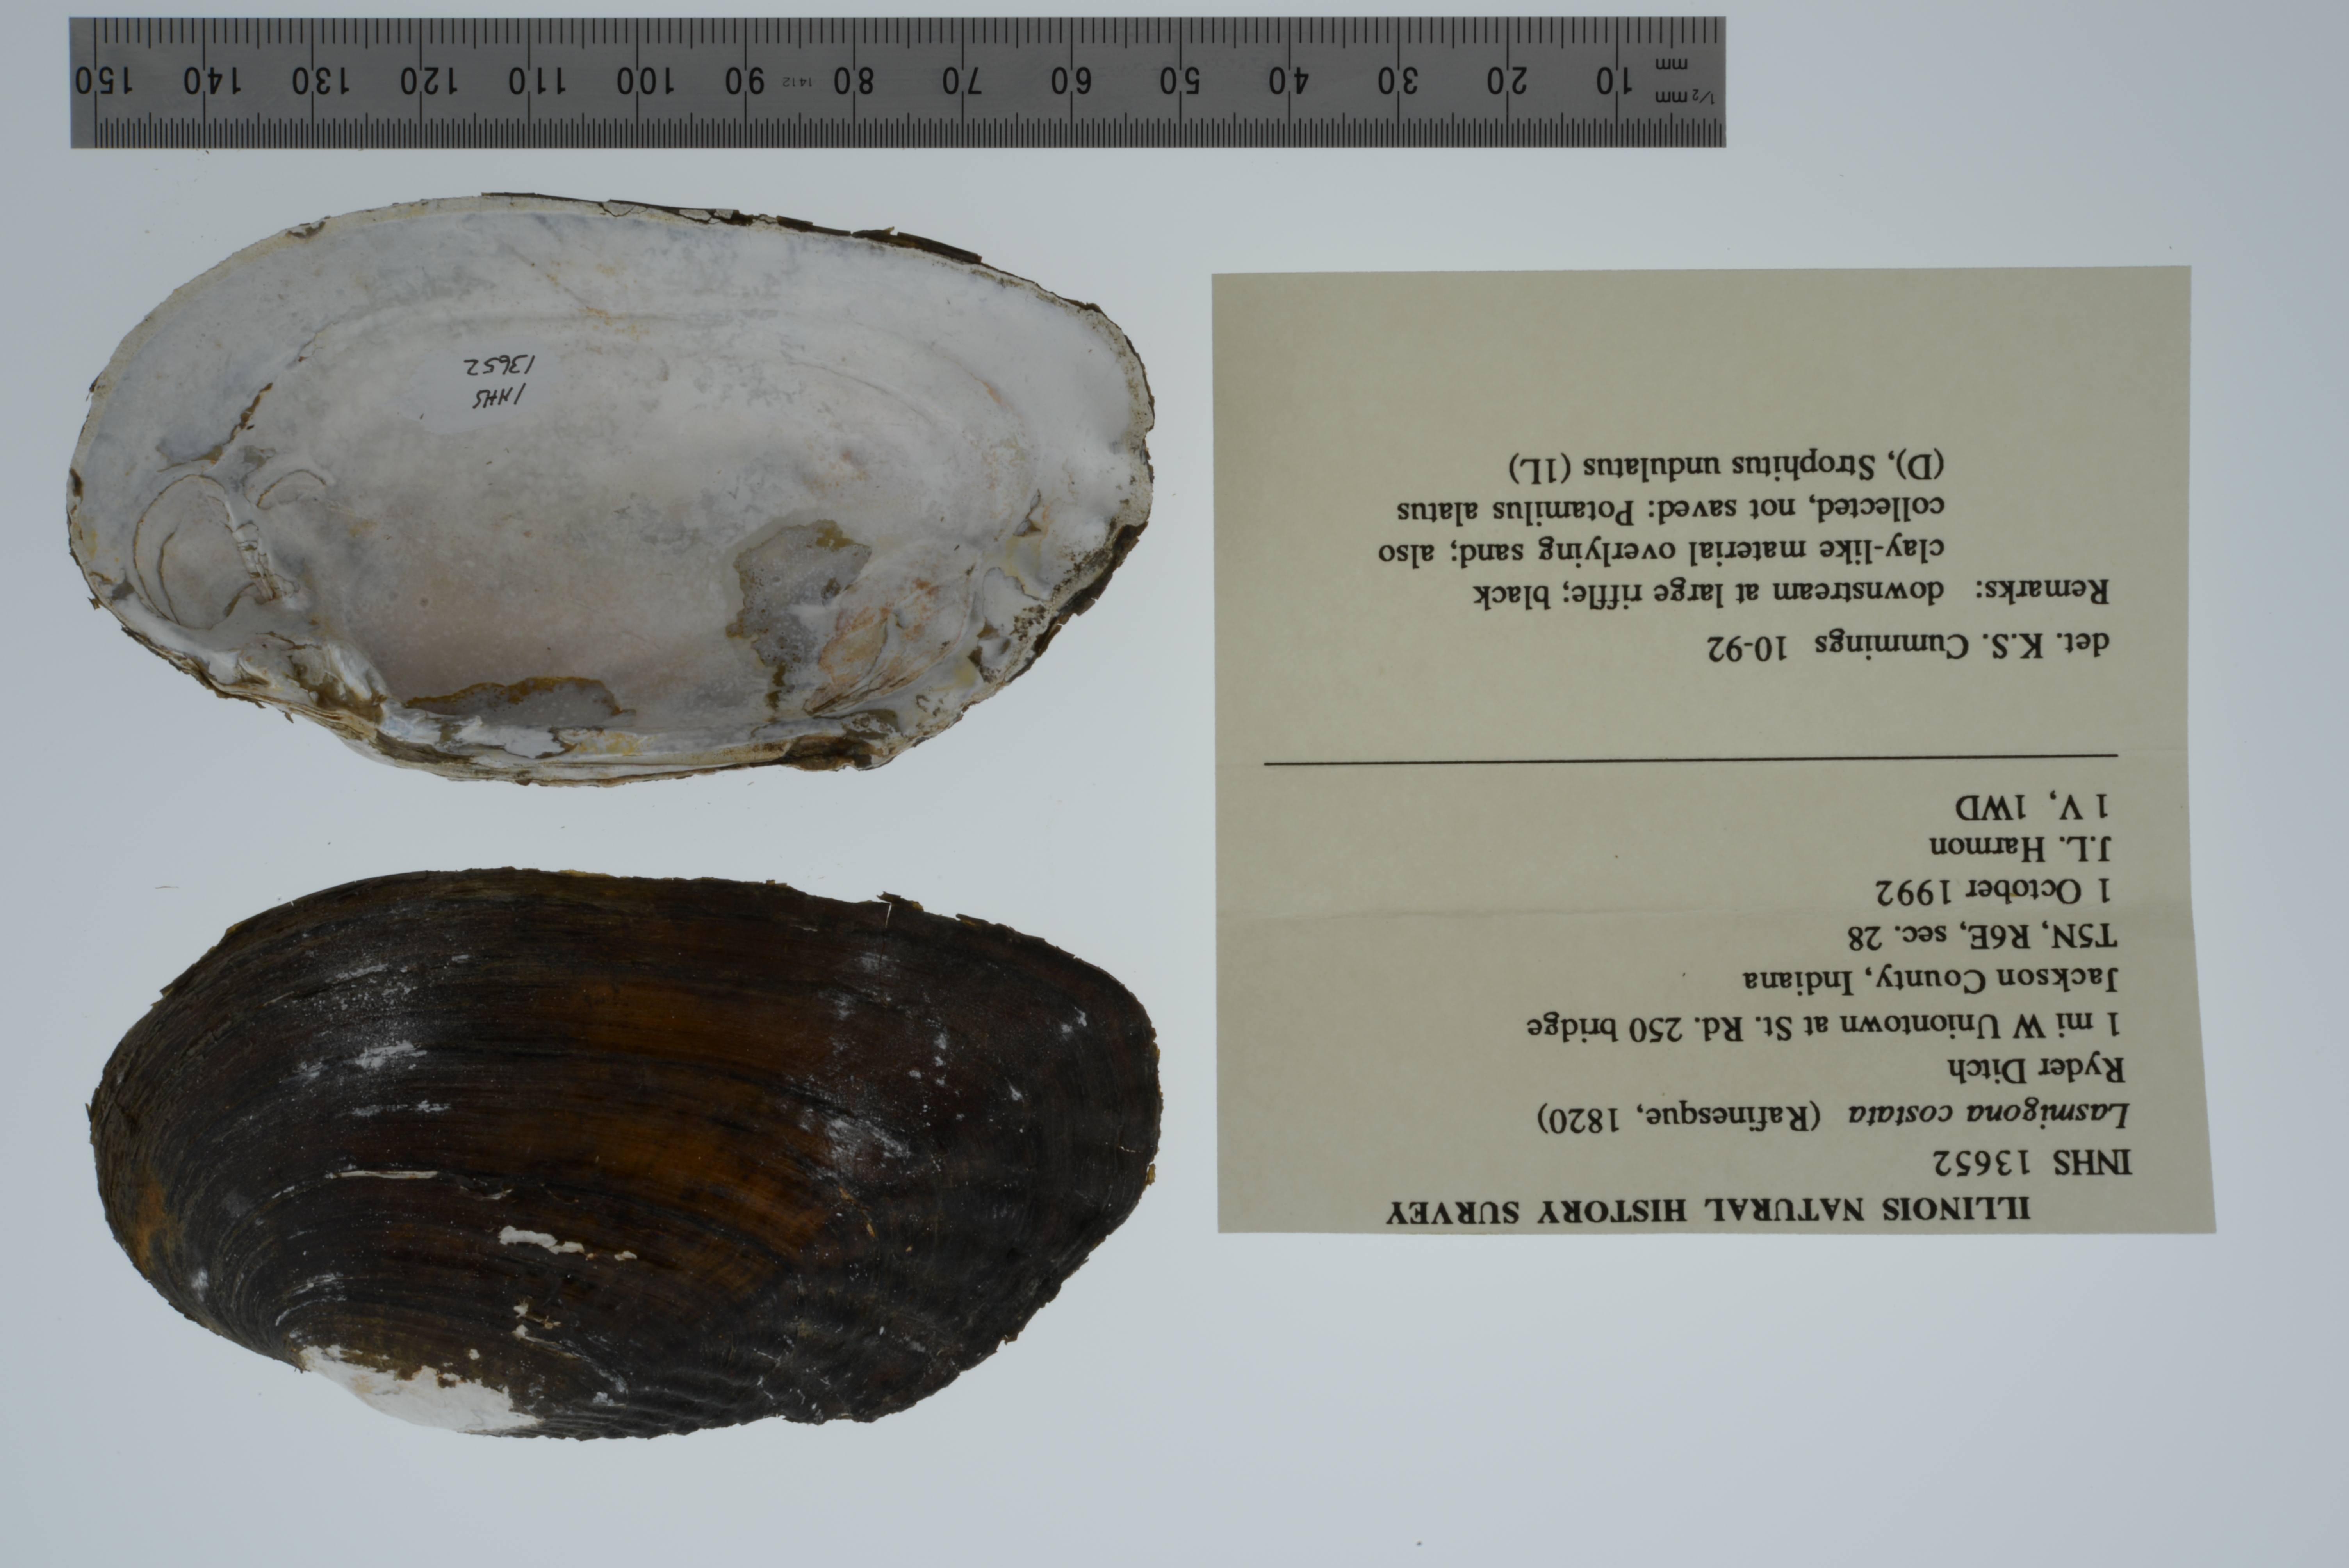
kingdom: Animalia
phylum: Mollusca
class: Bivalvia
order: Unionida
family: Unionidae
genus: Lasmigona
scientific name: Lasmigona costata
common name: Flutedshell
